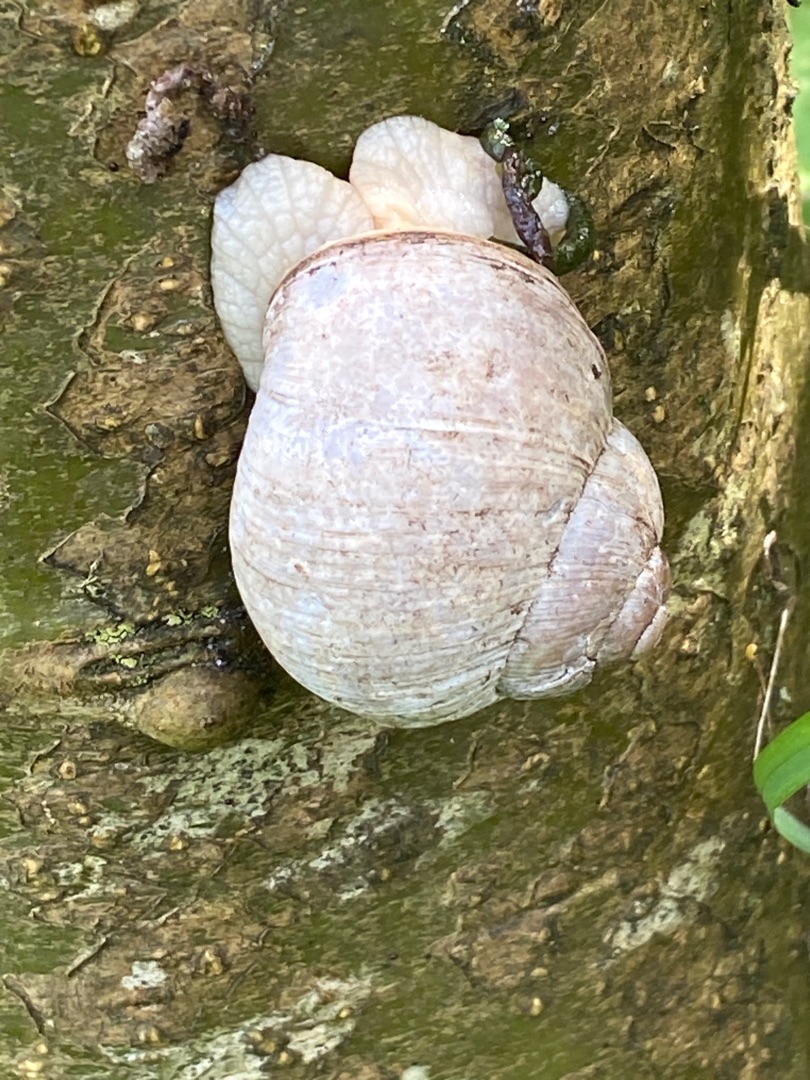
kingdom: Animalia
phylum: Mollusca
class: Gastropoda
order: Stylommatophora
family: Helicidae
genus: Helix
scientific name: Helix pomatia
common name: Vinbjergsnegl
